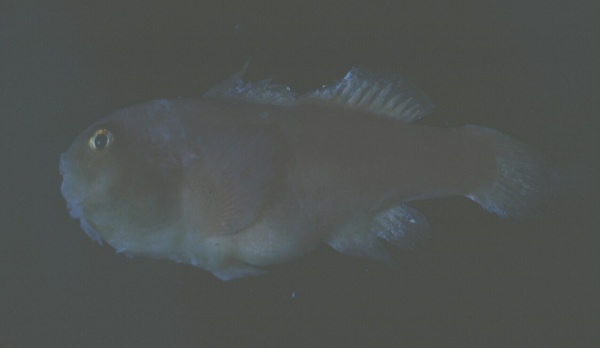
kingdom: Animalia
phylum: Chordata
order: Perciformes
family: Gobiidae
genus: Gobiodon
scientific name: Gobiodon rivulatus
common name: Rippled coralgoby
